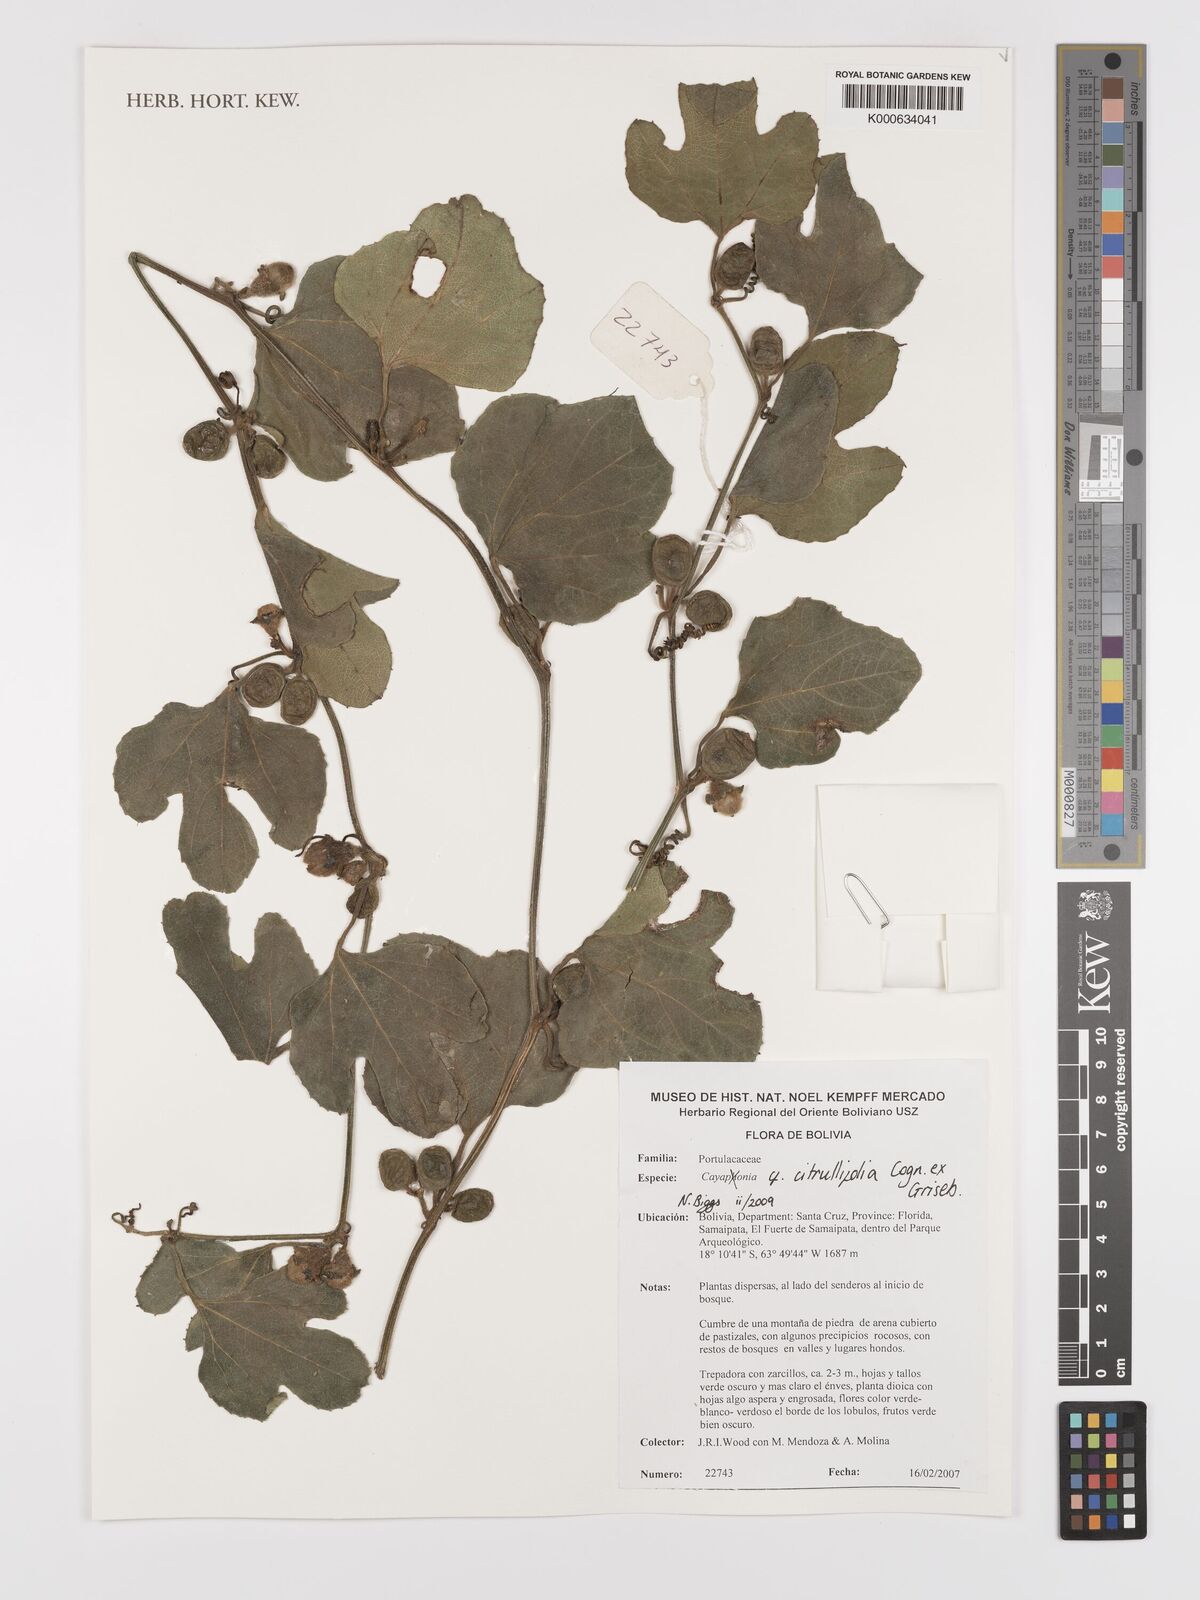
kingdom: Plantae
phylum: Tracheophyta
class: Magnoliopsida
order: Cucurbitales
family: Cucurbitaceae
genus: Cayaponia
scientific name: Cayaponia citrullifolia
